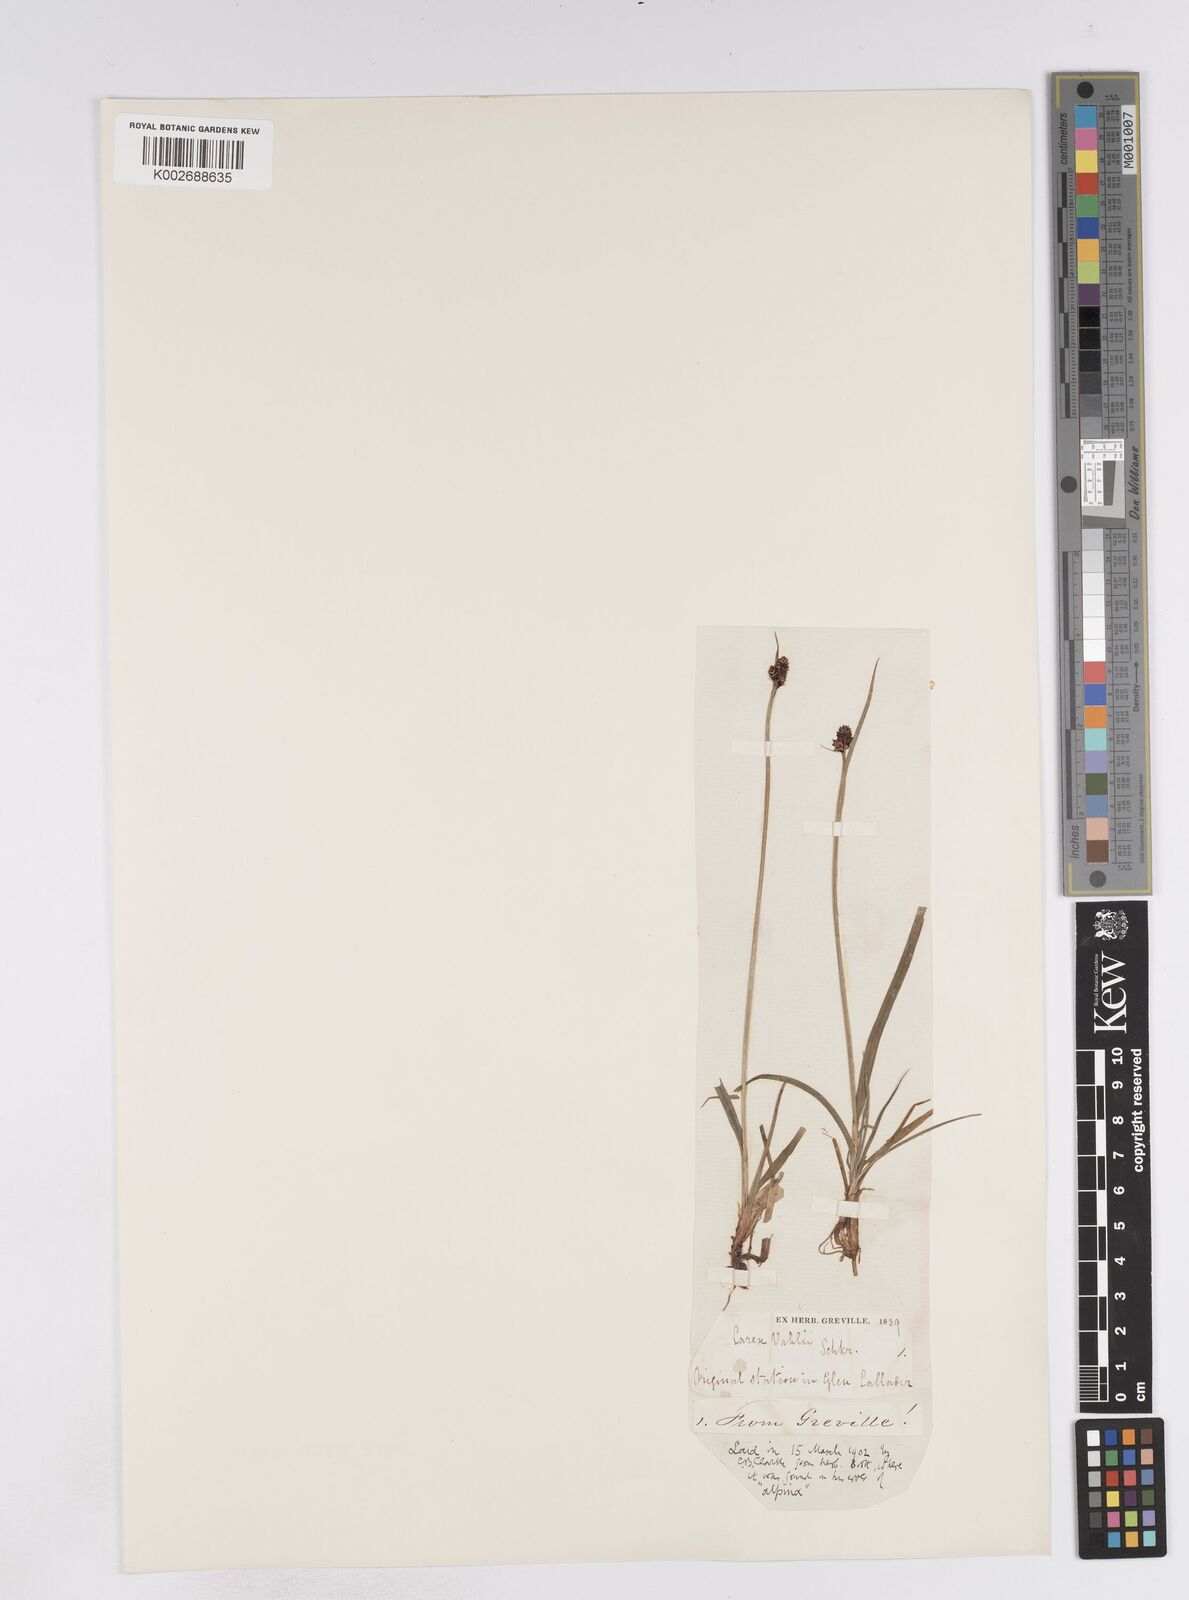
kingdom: Plantae
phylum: Tracheophyta
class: Liliopsida
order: Poales
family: Cyperaceae
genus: Carex
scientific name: Carex norvegica
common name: Close-headed alpine-sedge
